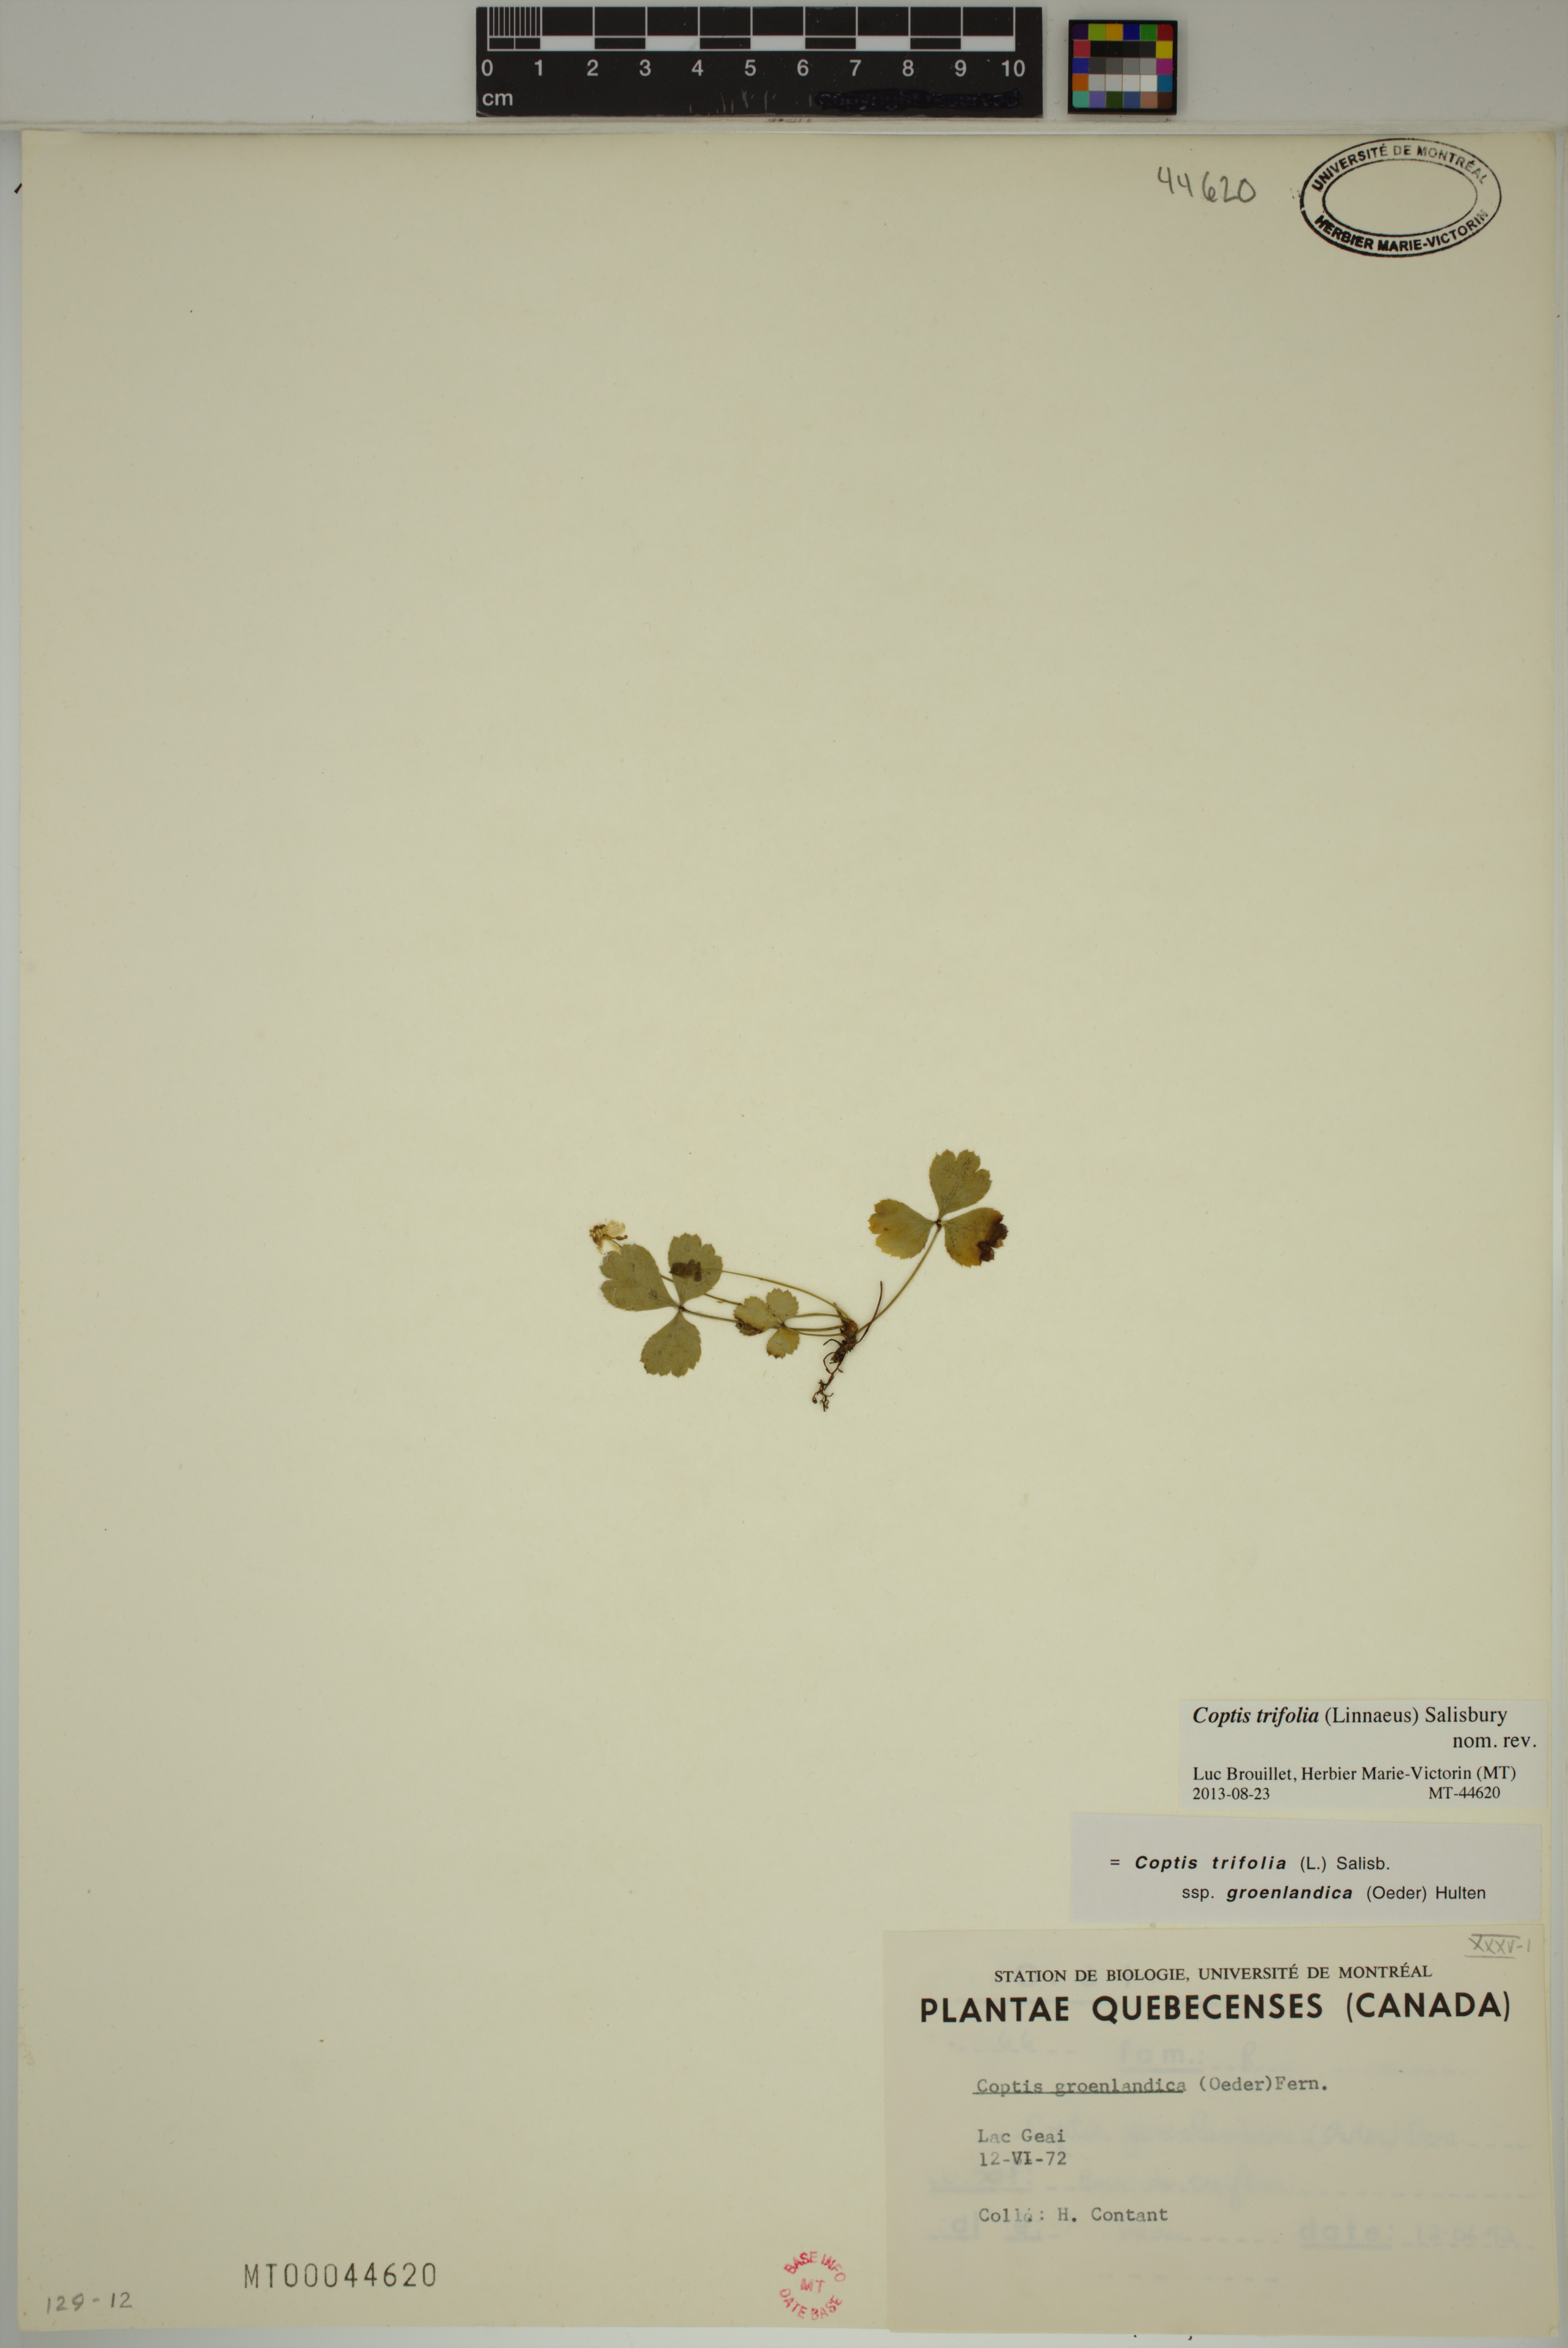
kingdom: Plantae
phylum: Tracheophyta
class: Magnoliopsida
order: Ranunculales
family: Ranunculaceae
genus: Coptis
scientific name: Coptis trifolia
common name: Canker-root
